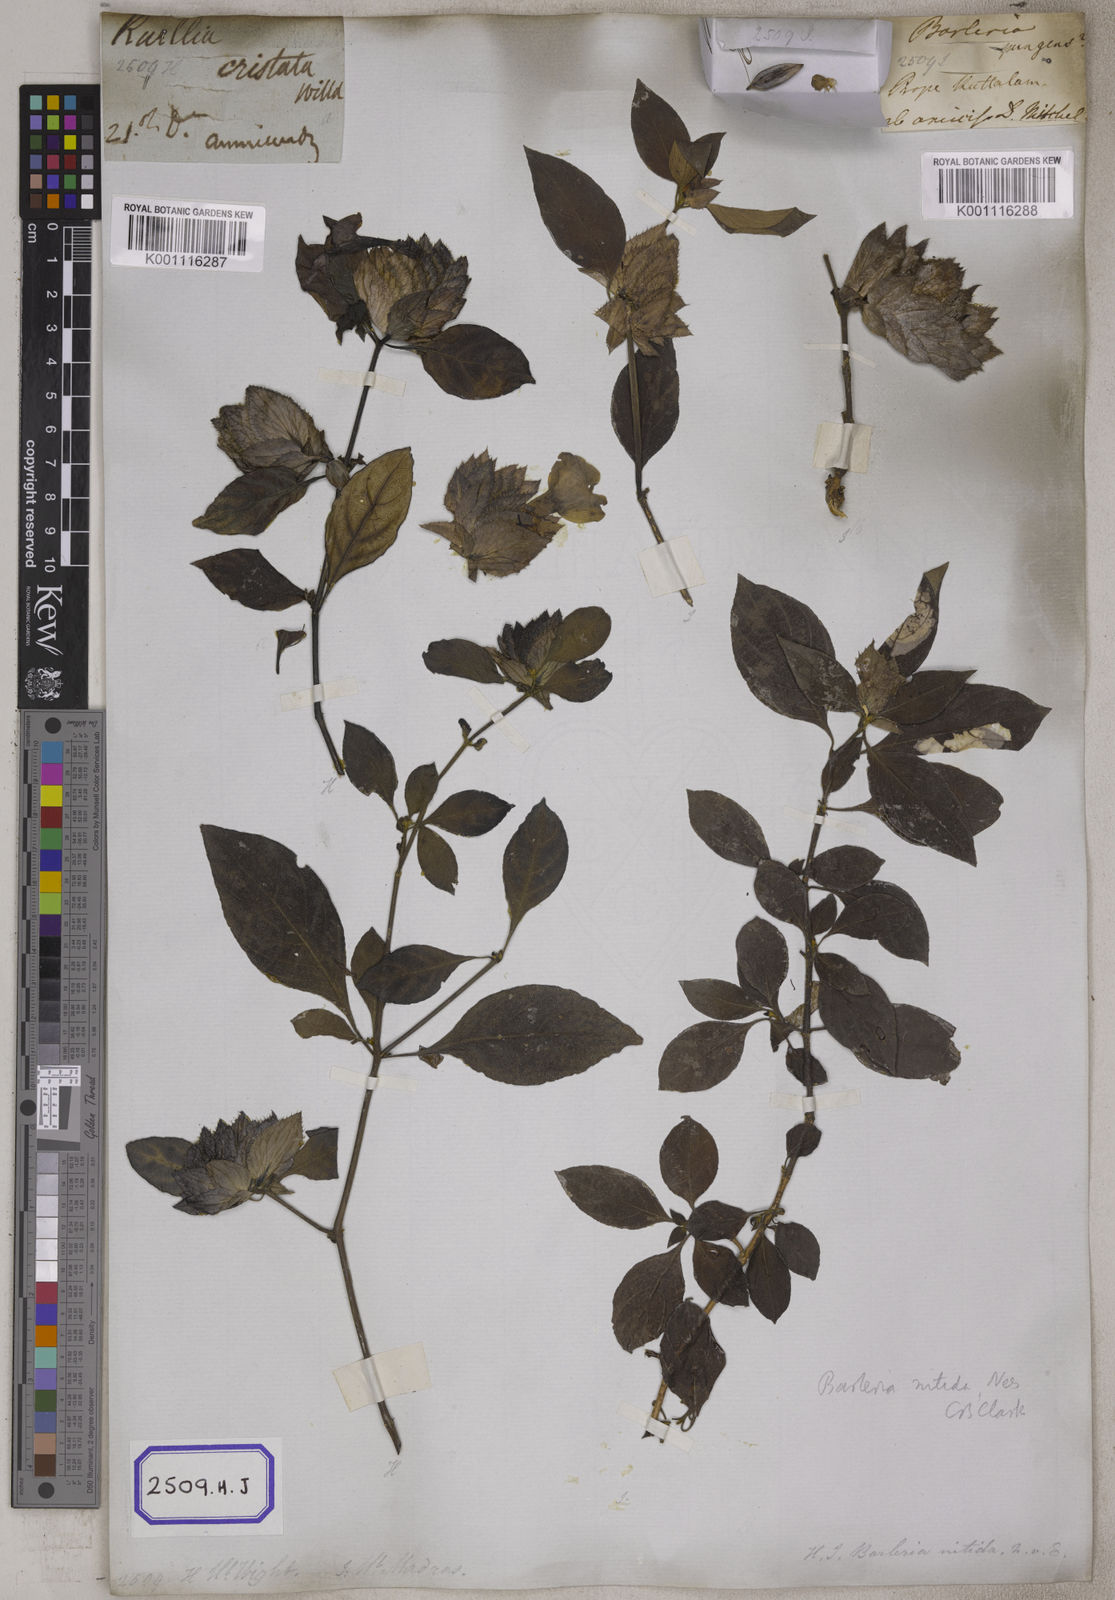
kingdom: Plantae
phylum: Tracheophyta
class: Magnoliopsida
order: Lamiales
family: Acanthaceae
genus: Barleria
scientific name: Barleria strigosa
